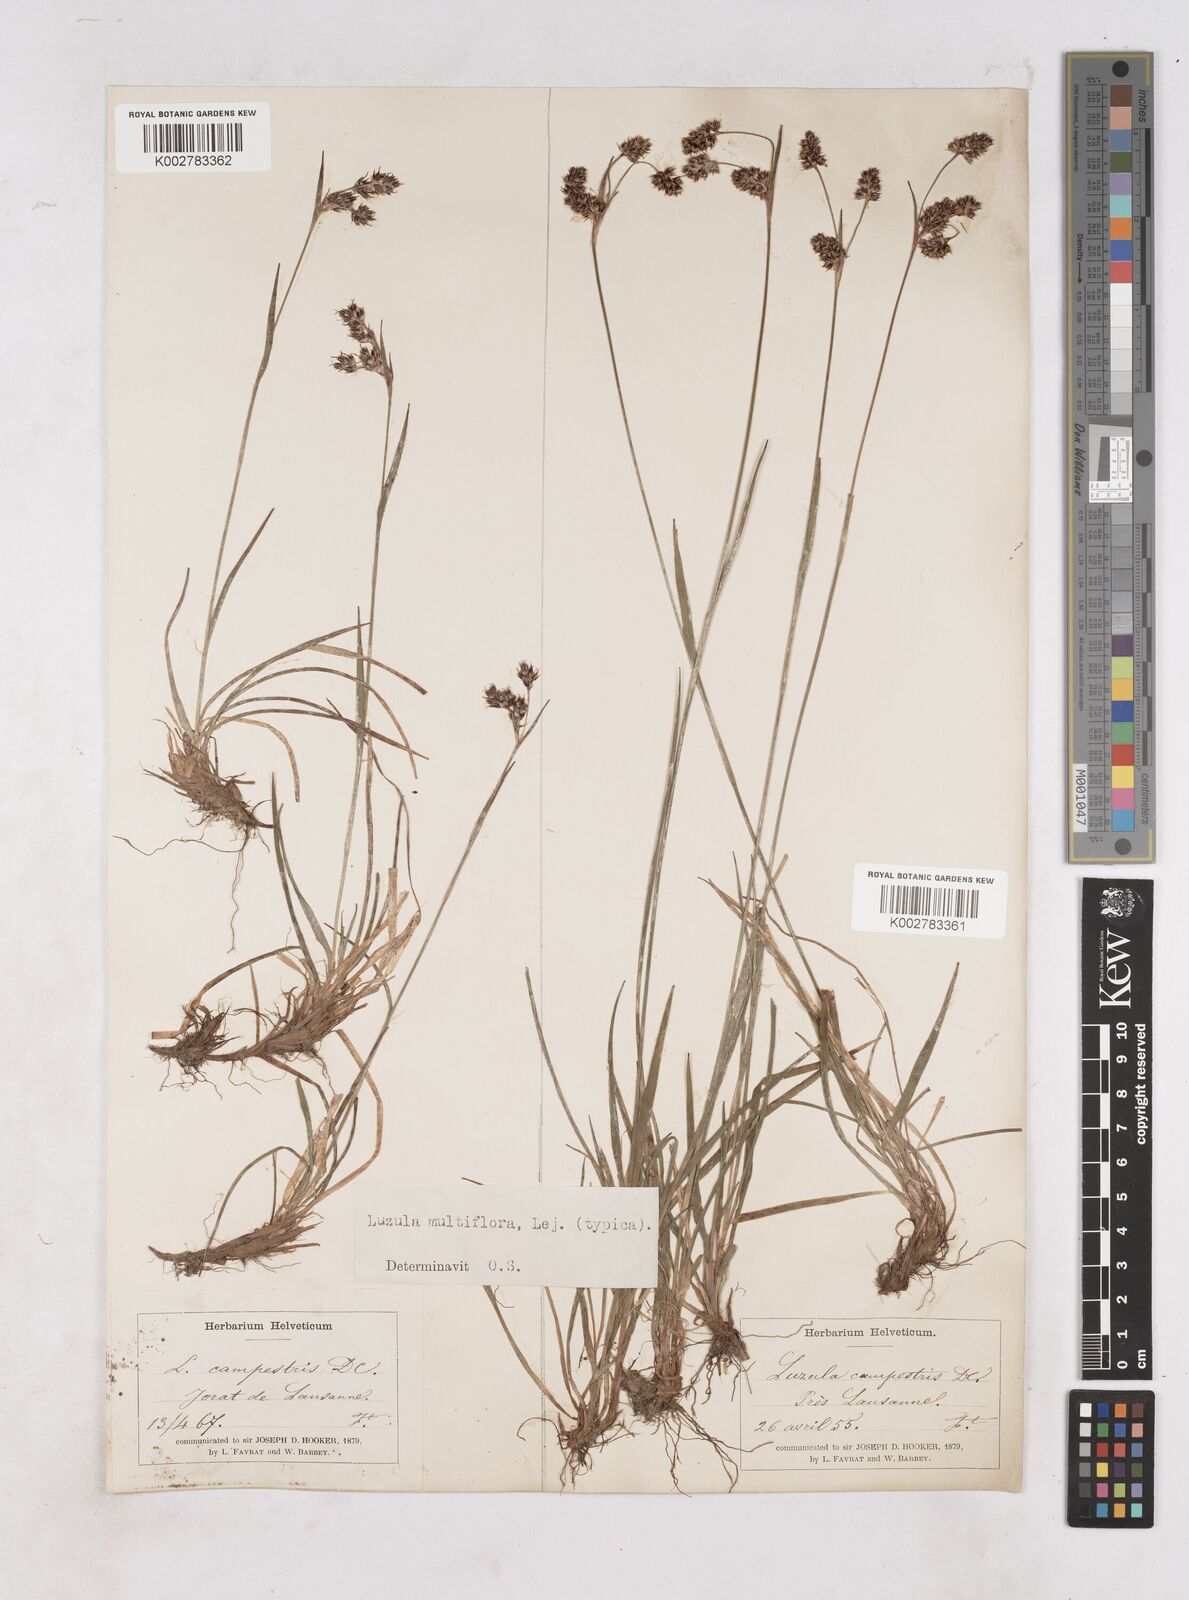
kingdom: Plantae
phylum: Tracheophyta
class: Liliopsida
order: Poales
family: Juncaceae
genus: Luzula
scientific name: Luzula multiflora
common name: Heath wood-rush
